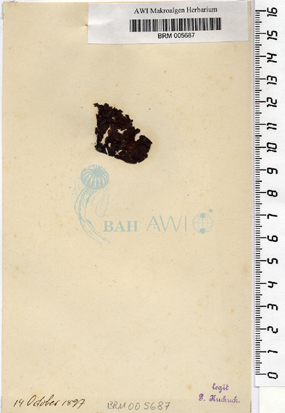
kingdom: Chromista
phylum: Ochrophyta
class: Phaeophyceae
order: Cutleriales
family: Cutleriaceae
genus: Cutleria
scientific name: Cutleria multifida
